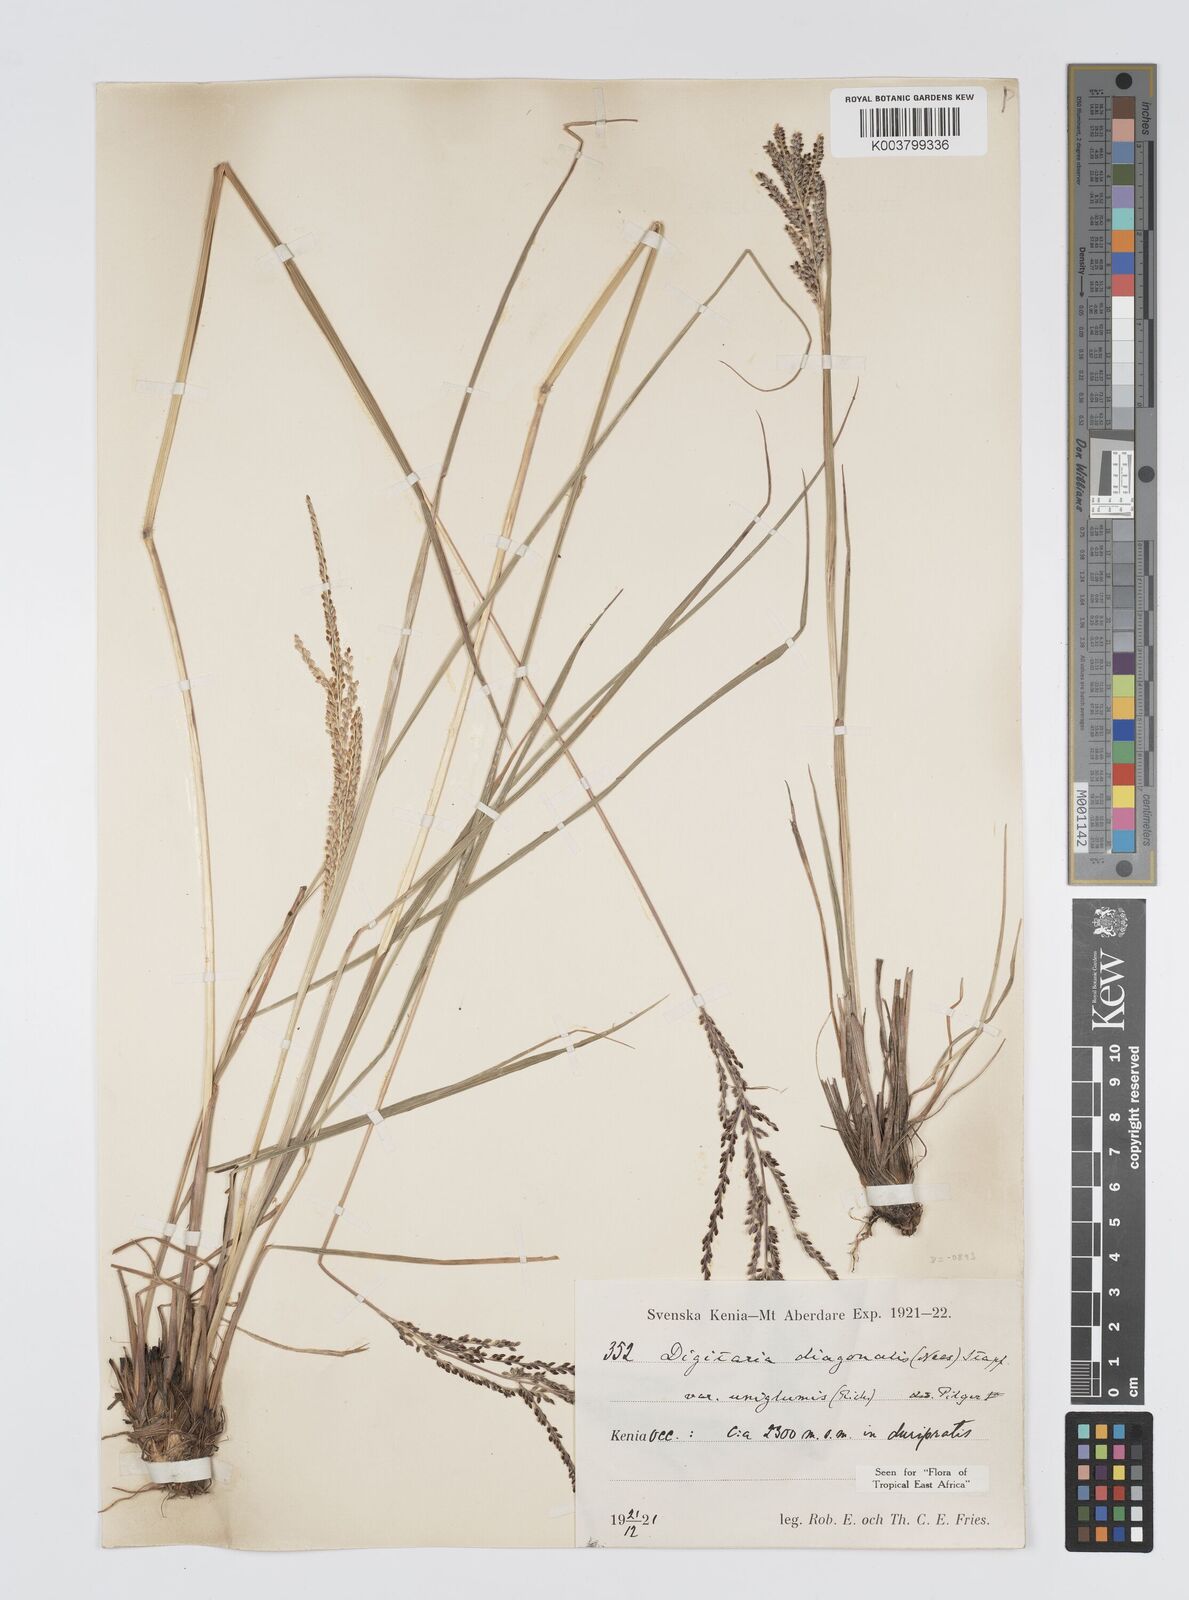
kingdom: Plantae
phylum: Tracheophyta
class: Liliopsida
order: Poales
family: Poaceae
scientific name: Poaceae
